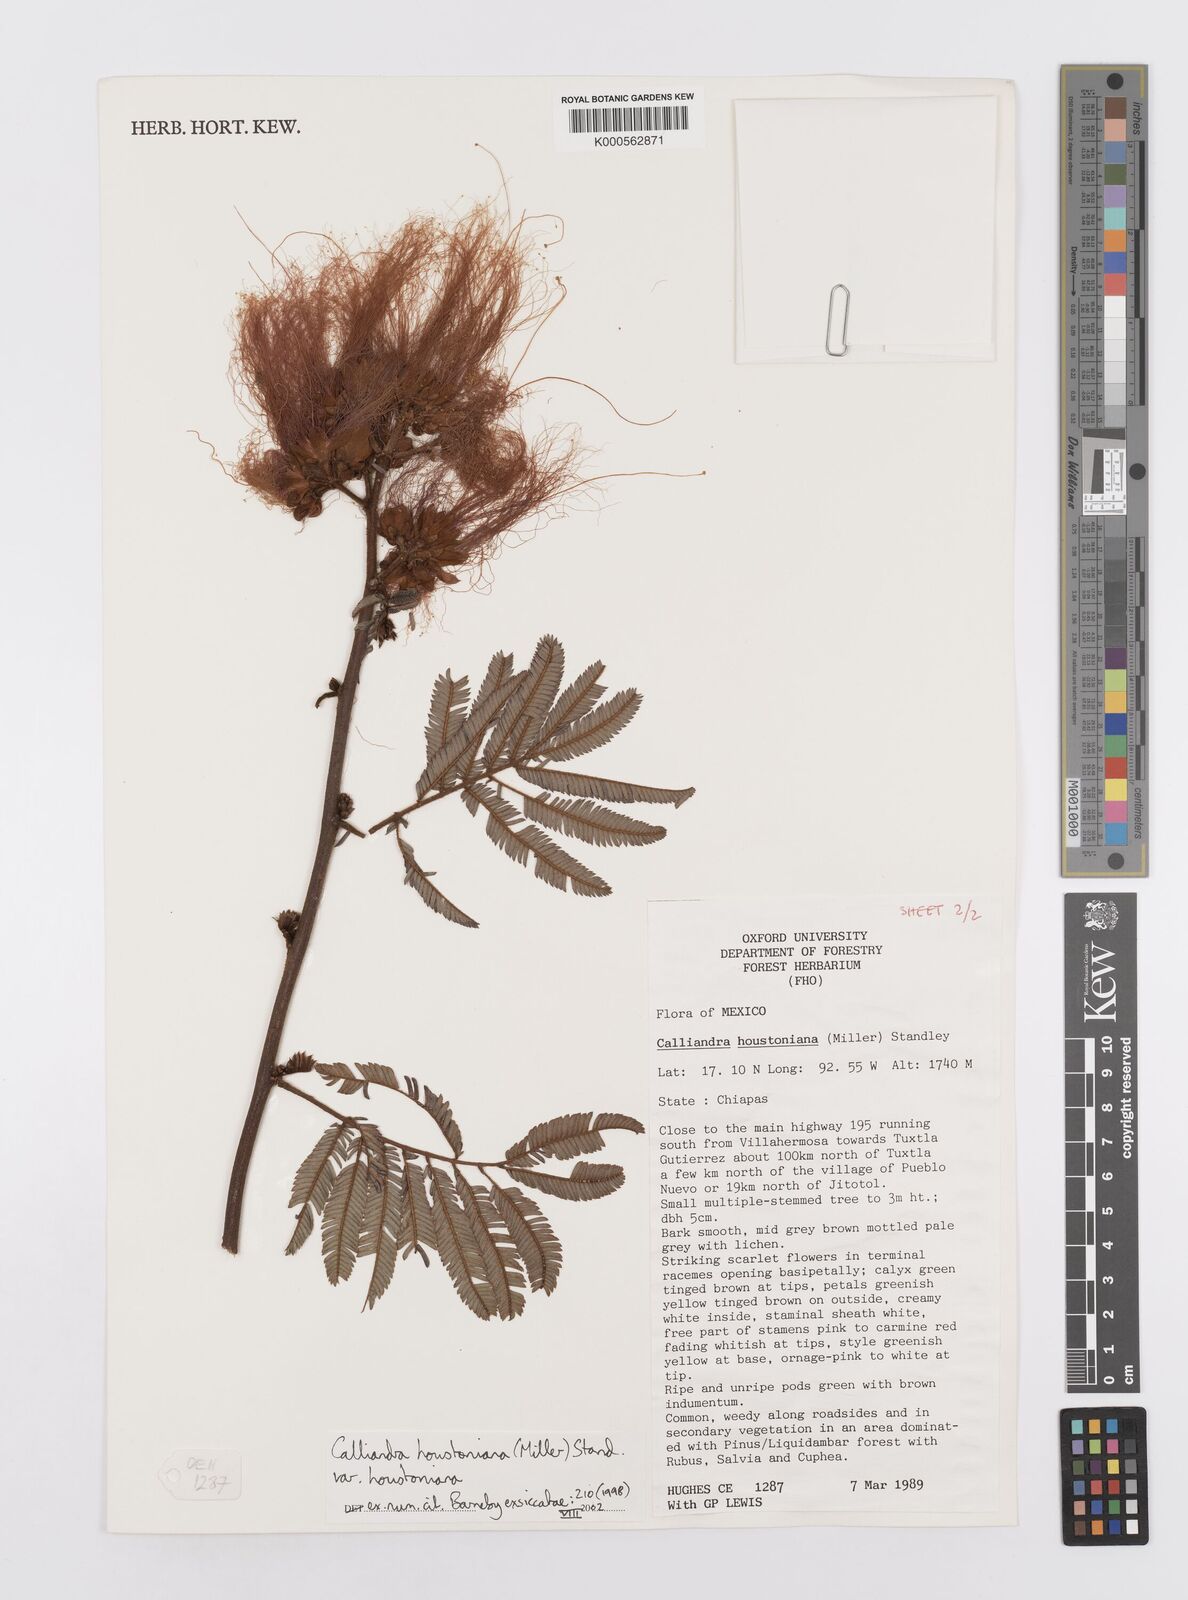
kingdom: Plantae
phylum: Tracheophyta
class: Magnoliopsida
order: Fabales
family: Fabaceae
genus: Calliandra
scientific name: Calliandra houstoniana
